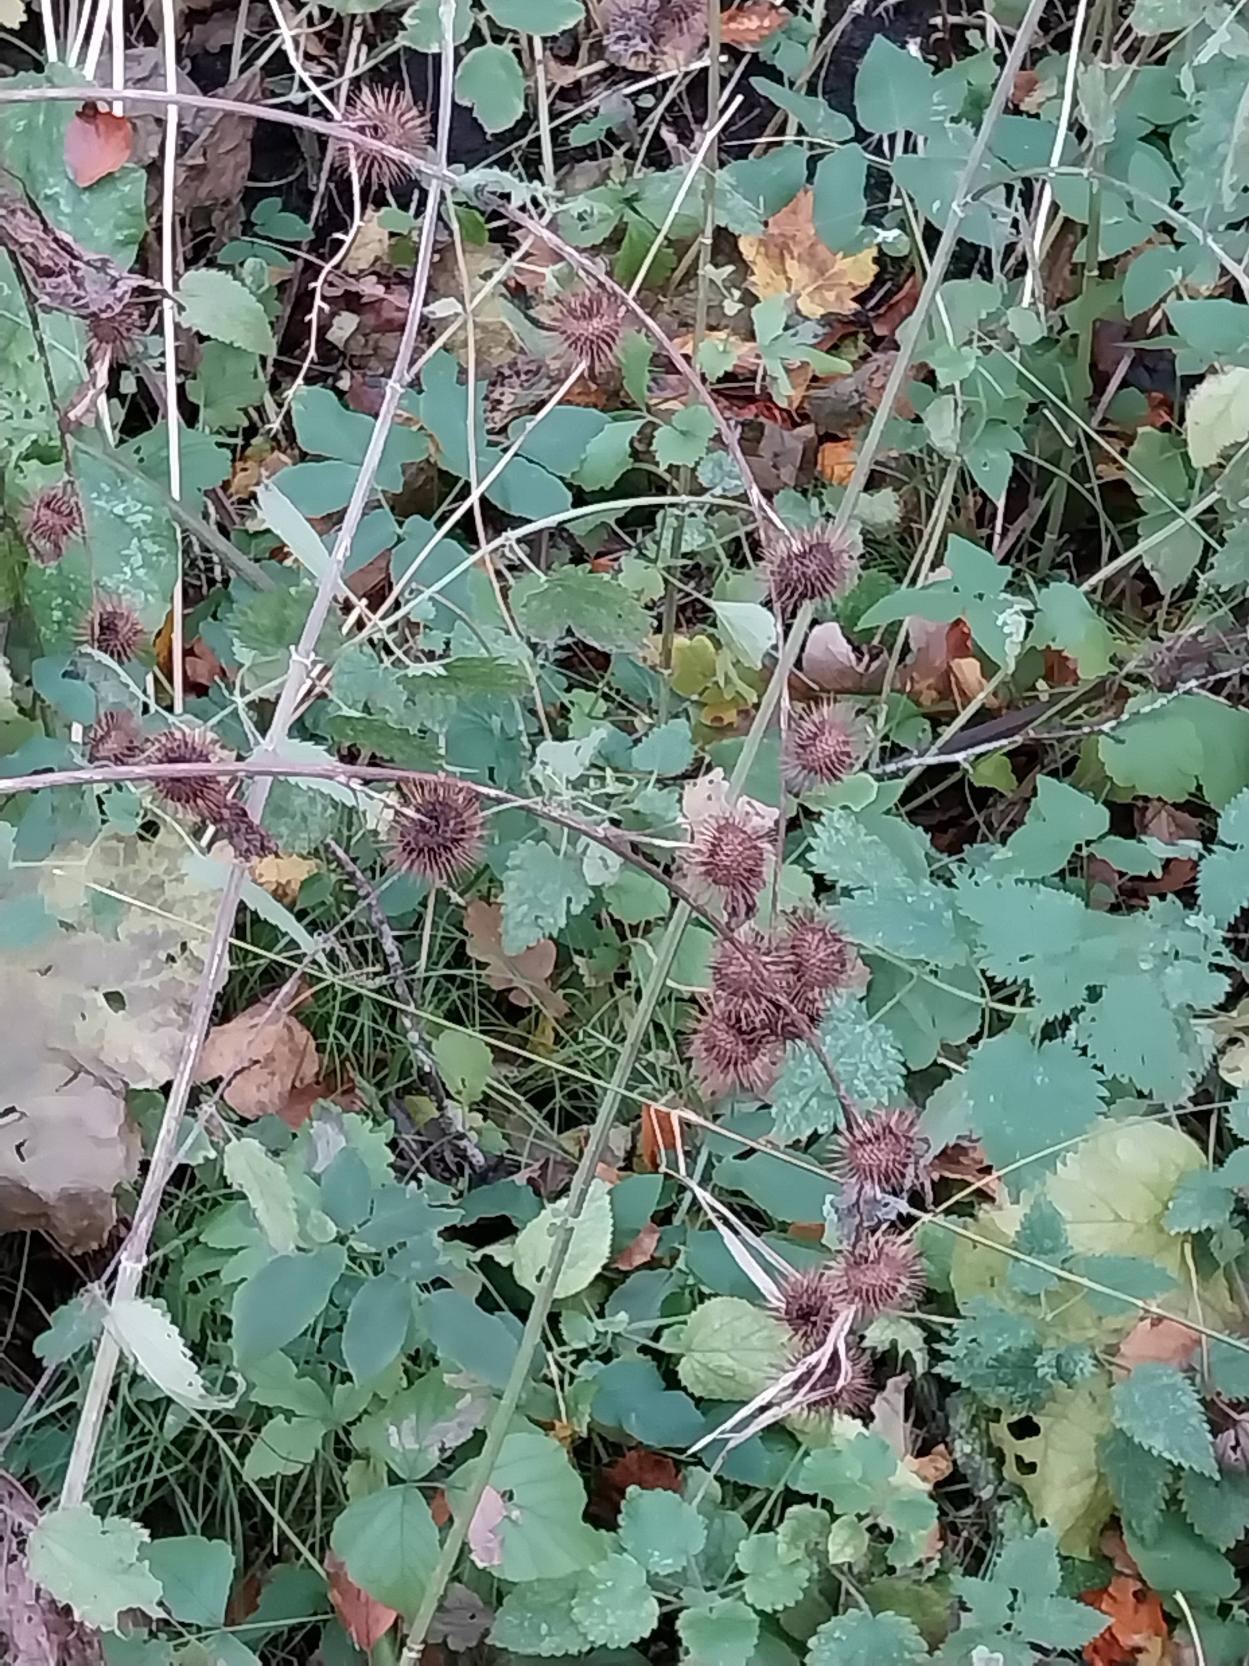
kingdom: Plantae
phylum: Tracheophyta
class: Magnoliopsida
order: Asterales
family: Asteraceae
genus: Arctium
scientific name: Arctium nemorosum
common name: Skov-burre
